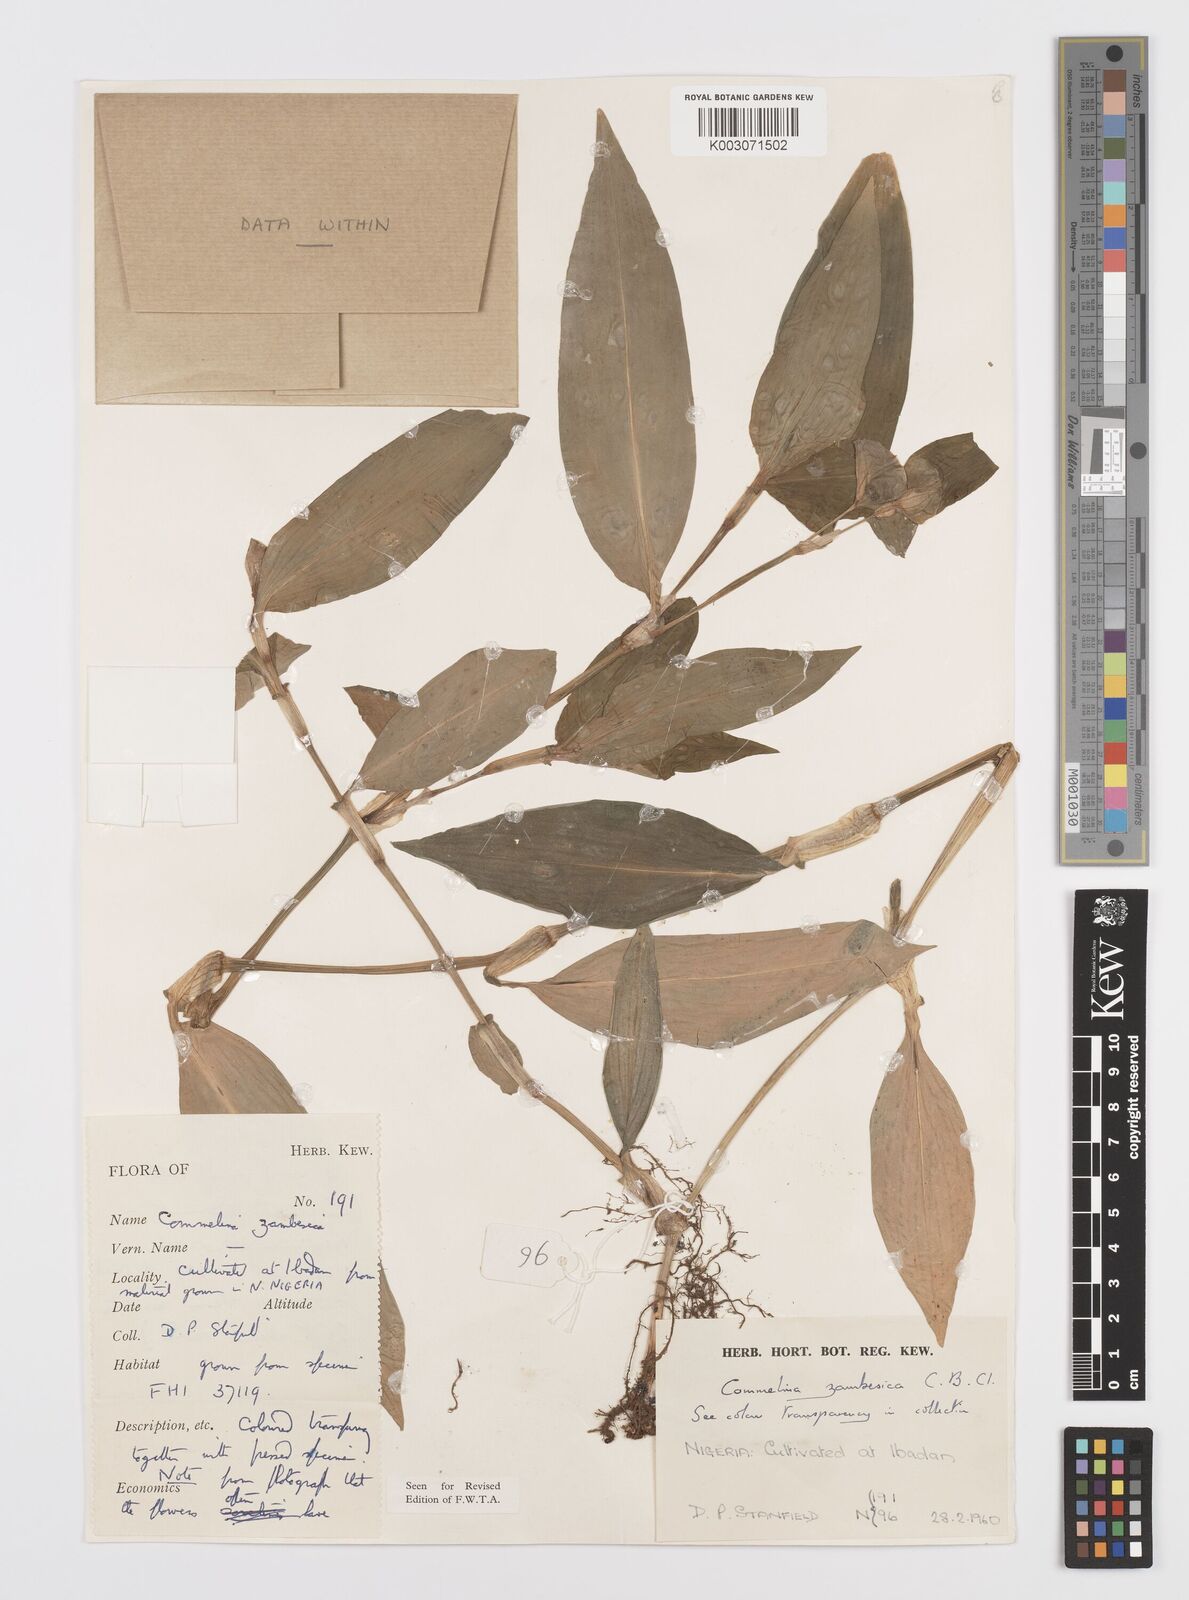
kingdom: Plantae
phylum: Tracheophyta
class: Liliopsida
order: Commelinales
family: Commelinaceae
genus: Commelina
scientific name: Commelina zambesica
